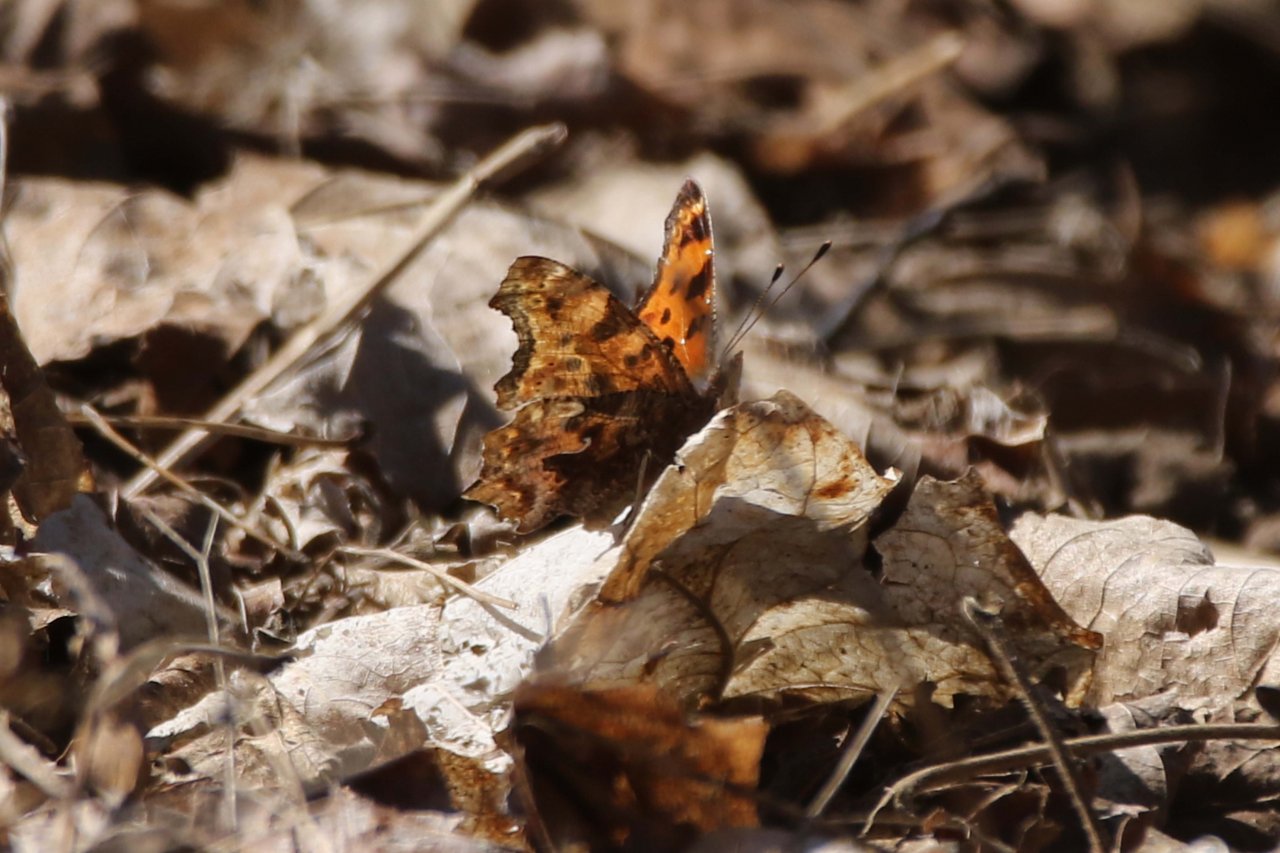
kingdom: Animalia
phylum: Arthropoda
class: Insecta
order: Lepidoptera
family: Nymphalidae
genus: Polygonia
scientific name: Polygonia comma
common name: Eastern Comma
